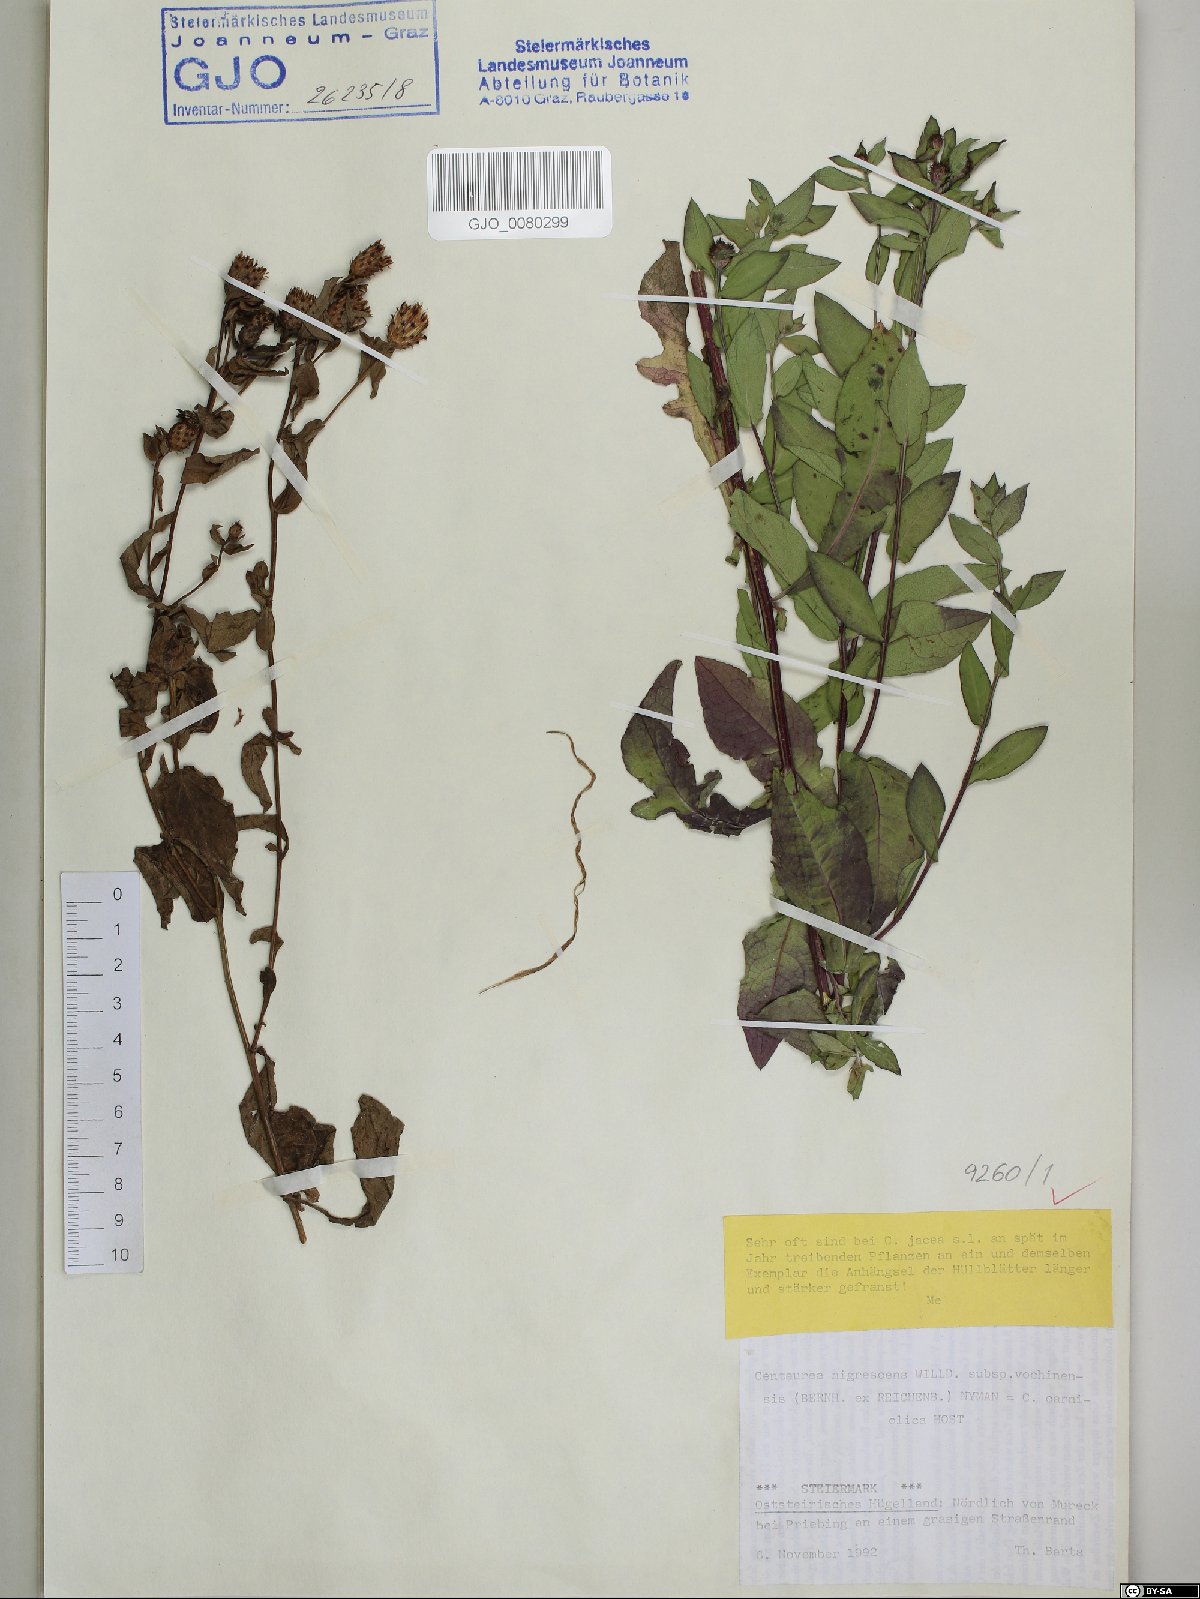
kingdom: Plantae
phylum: Tracheophyta
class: Magnoliopsida
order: Asterales
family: Asteraceae
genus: Centaurea
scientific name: Centaurea carniolica
